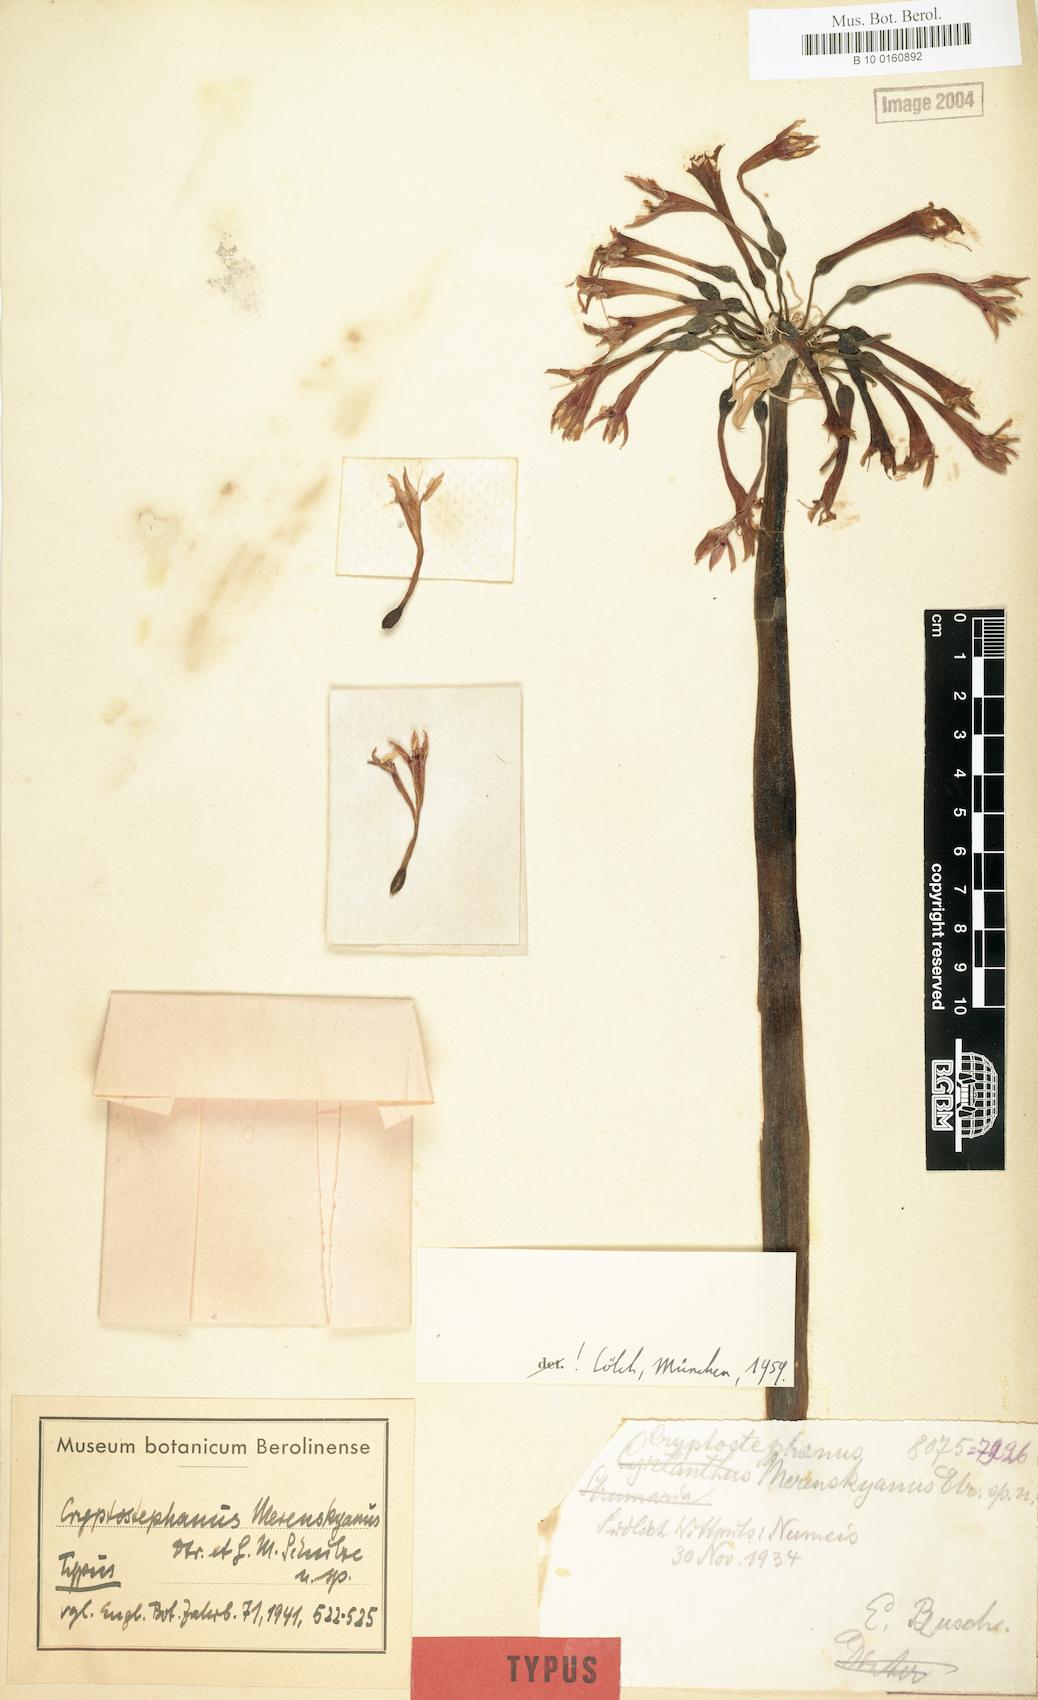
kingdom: Plantae
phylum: Tracheophyta
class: Liliopsida
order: Asparagales
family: Amaryllidaceae
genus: Cyrtanthus
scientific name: Cyrtanthus herrei
